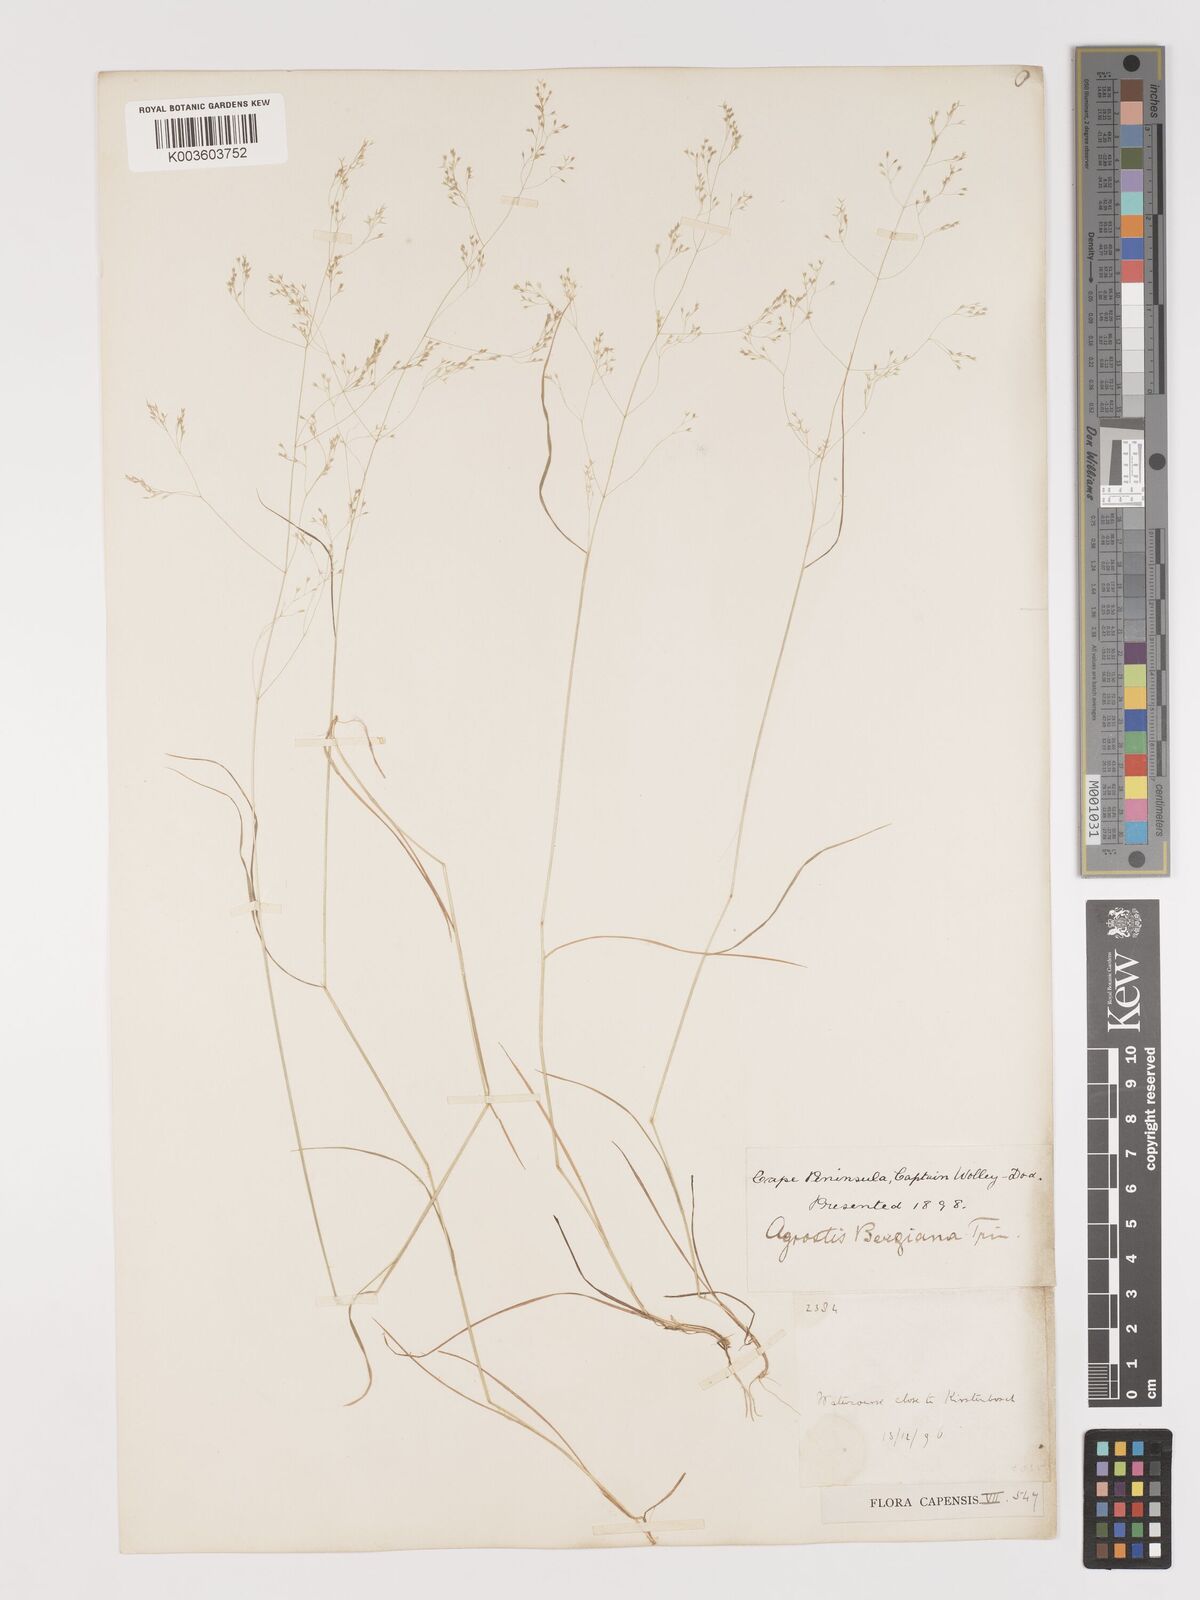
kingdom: Plantae
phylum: Tracheophyta
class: Liliopsida
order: Poales
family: Poaceae
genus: Agrostis
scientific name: Agrostis bergiana
